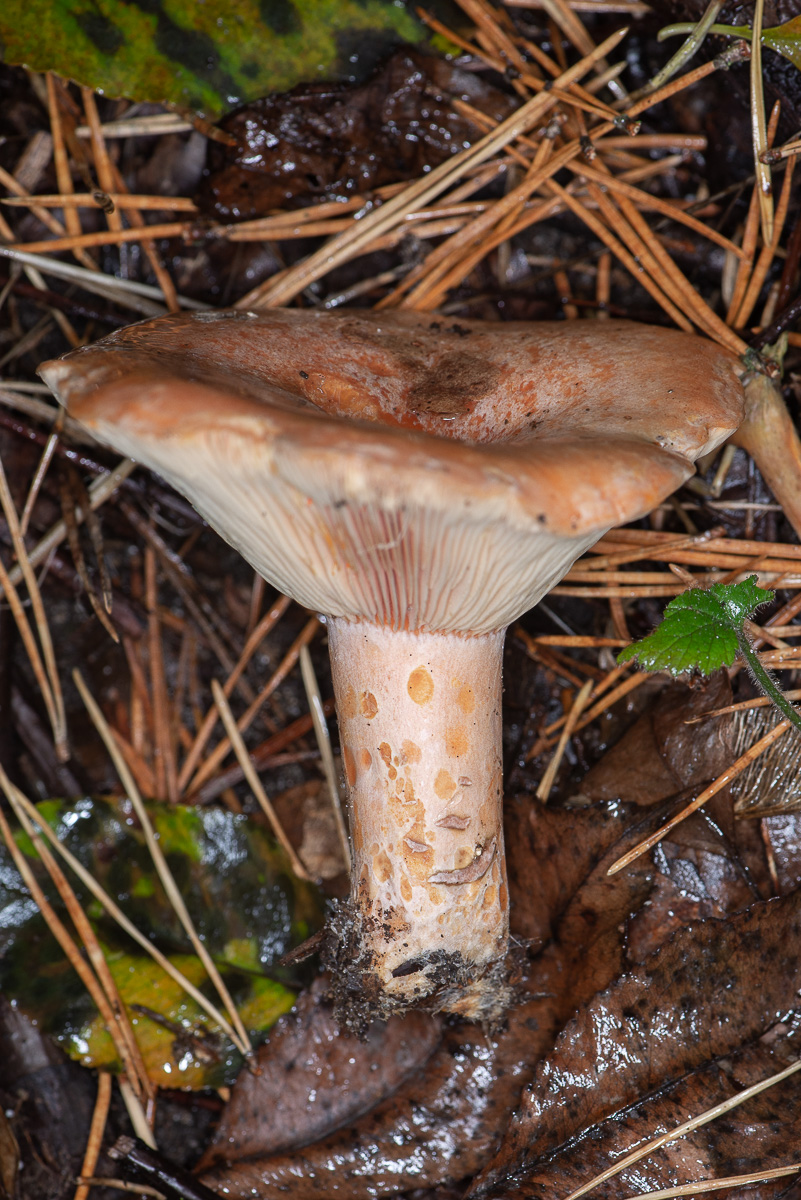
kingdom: Fungi
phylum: Basidiomycota
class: Agaricomycetes
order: Russulales
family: Russulaceae
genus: Lactarius
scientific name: Lactarius deliciosus
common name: velsmagende mælkehat
